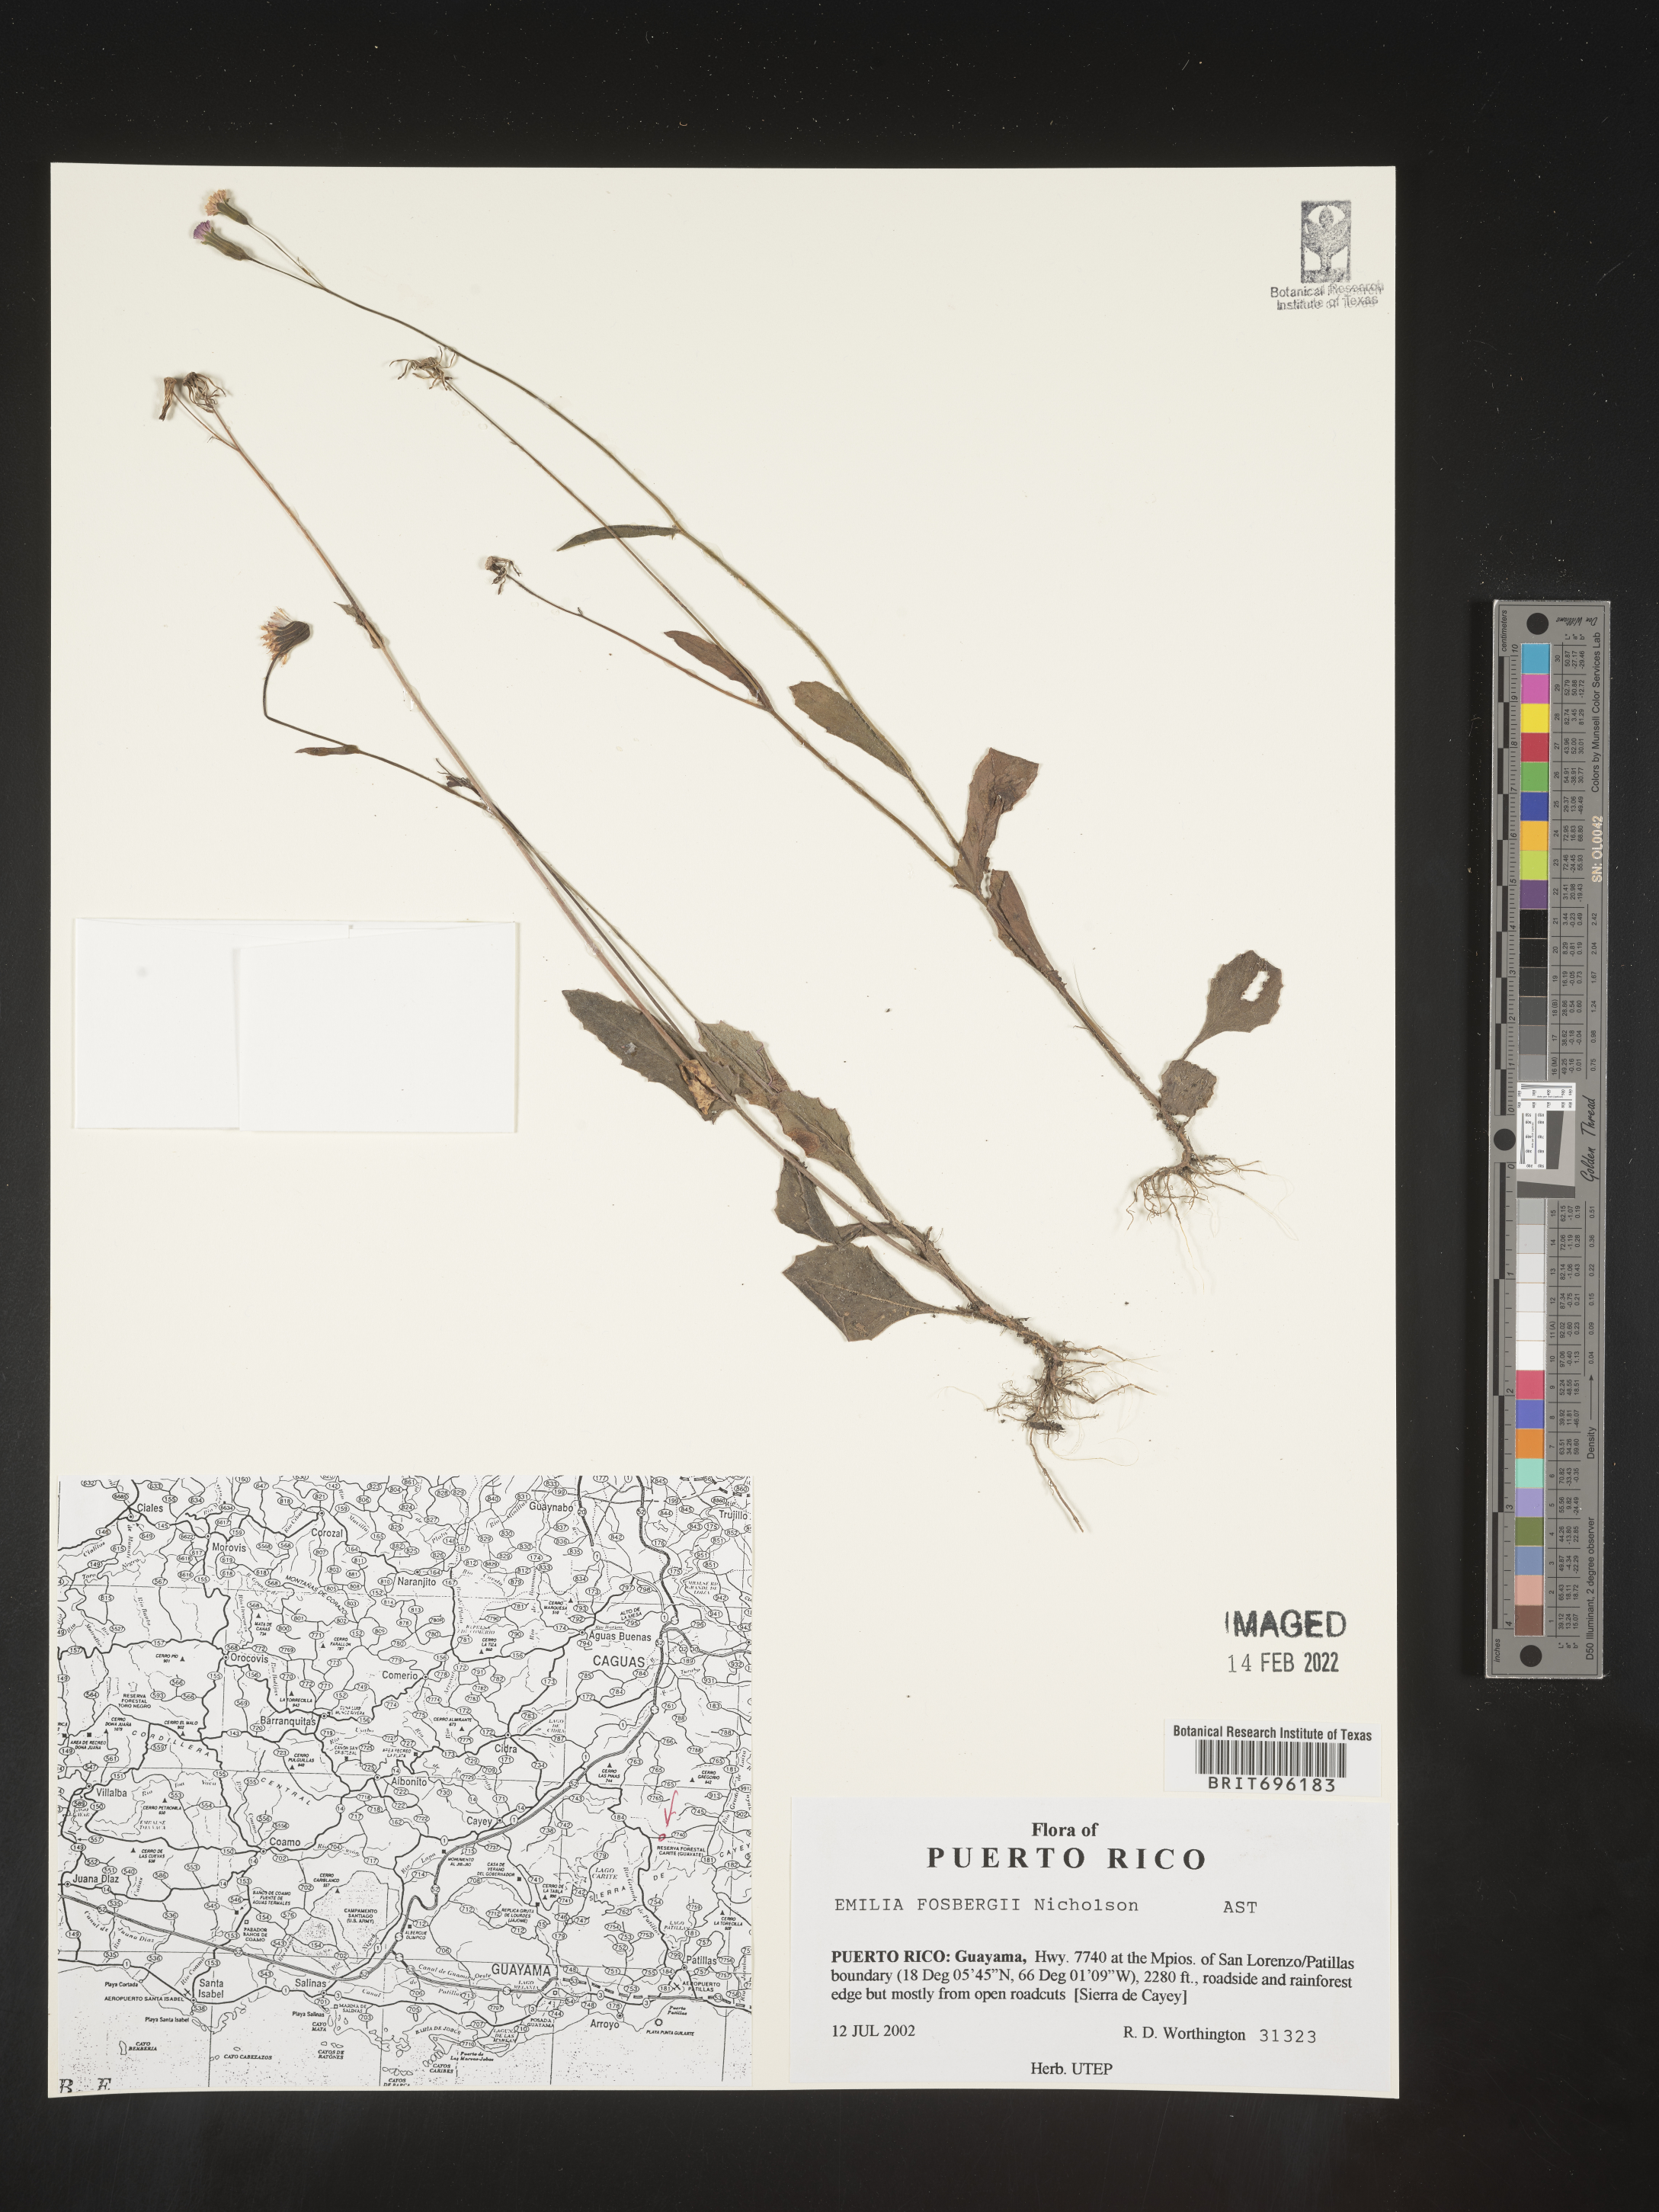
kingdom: Plantae
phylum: Tracheophyta
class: Magnoliopsida
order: Asterales
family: Asteraceae
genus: Emilia
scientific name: Emilia
